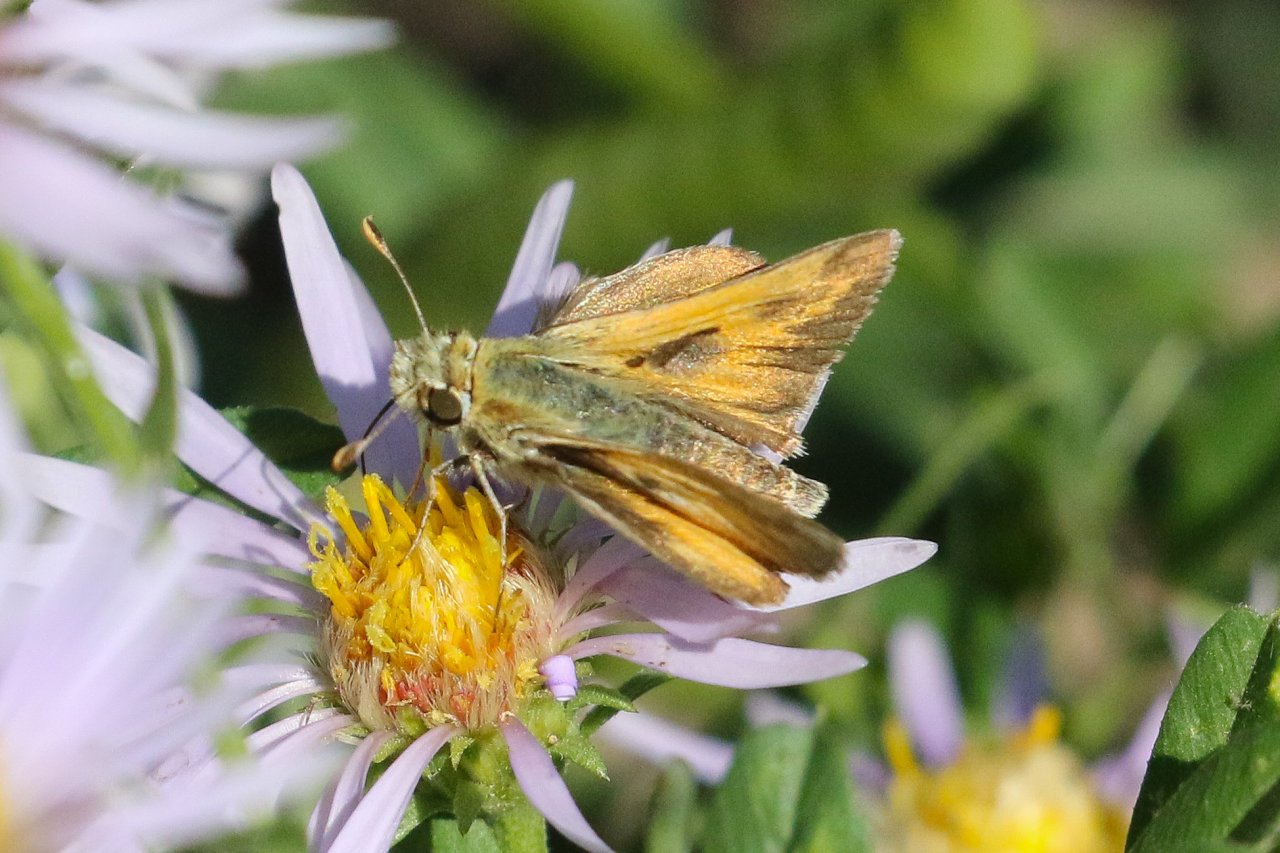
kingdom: Animalia
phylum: Arthropoda
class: Insecta
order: Lepidoptera
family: Hesperiidae
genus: Polites
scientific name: Polites sabuleti
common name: Sandhill Skipper
